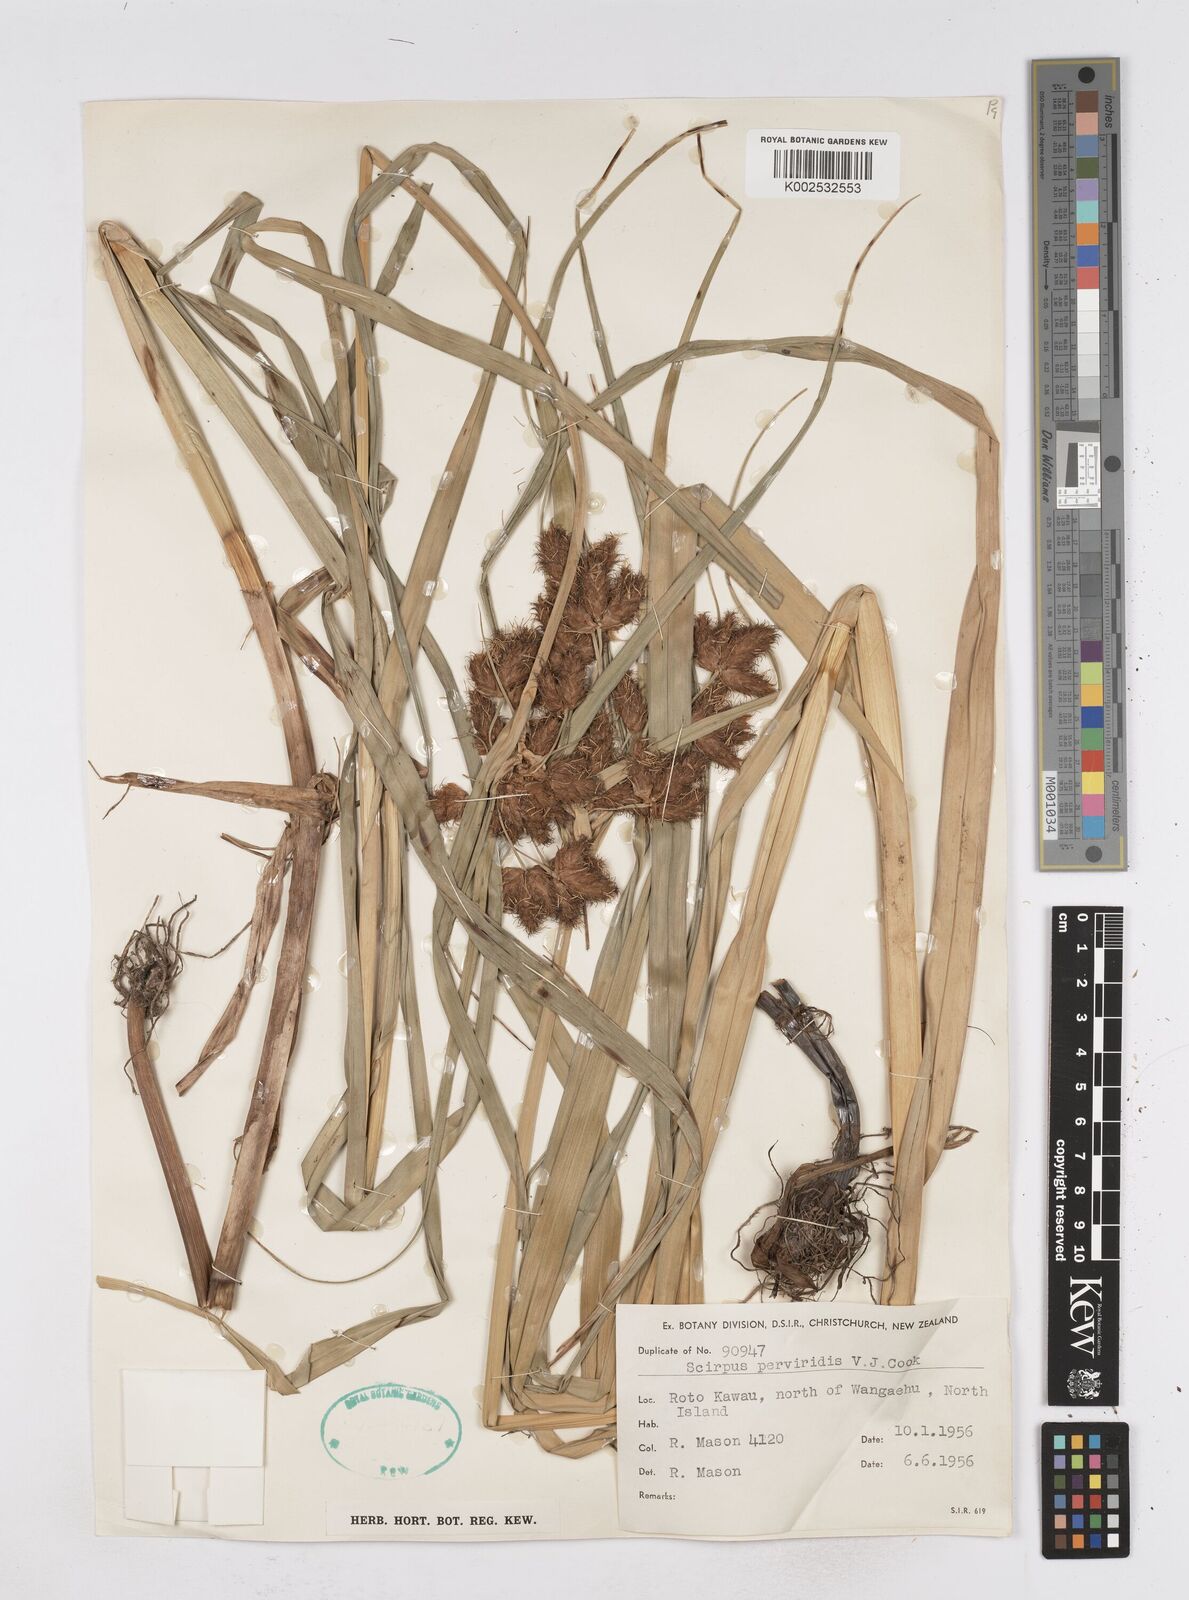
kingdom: Plantae
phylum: Tracheophyta
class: Liliopsida
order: Poales
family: Cyperaceae
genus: Bolboschoenus
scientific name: Bolboschoenus maritimus
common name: Sea club-rush
